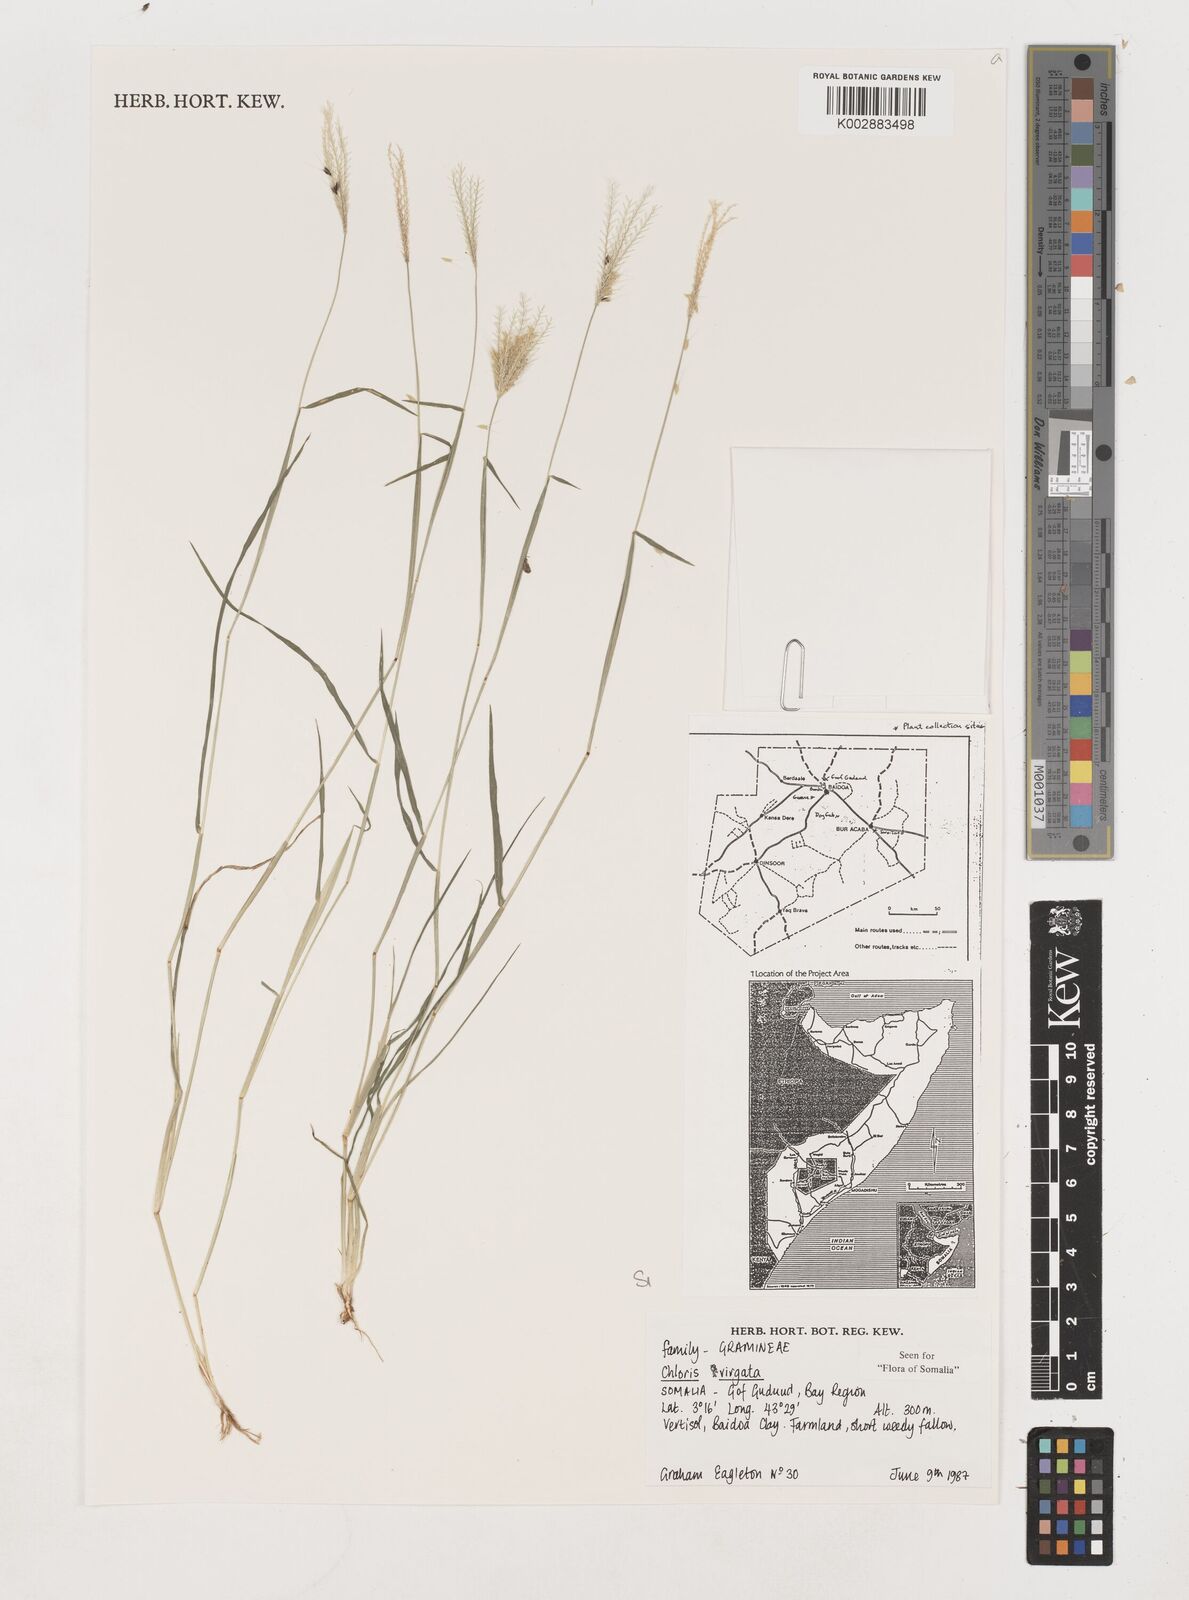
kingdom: Plantae
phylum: Tracheophyta
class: Liliopsida
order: Poales
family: Poaceae
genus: Chloris
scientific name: Chloris virgata
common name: Feathery rhodes-grass
